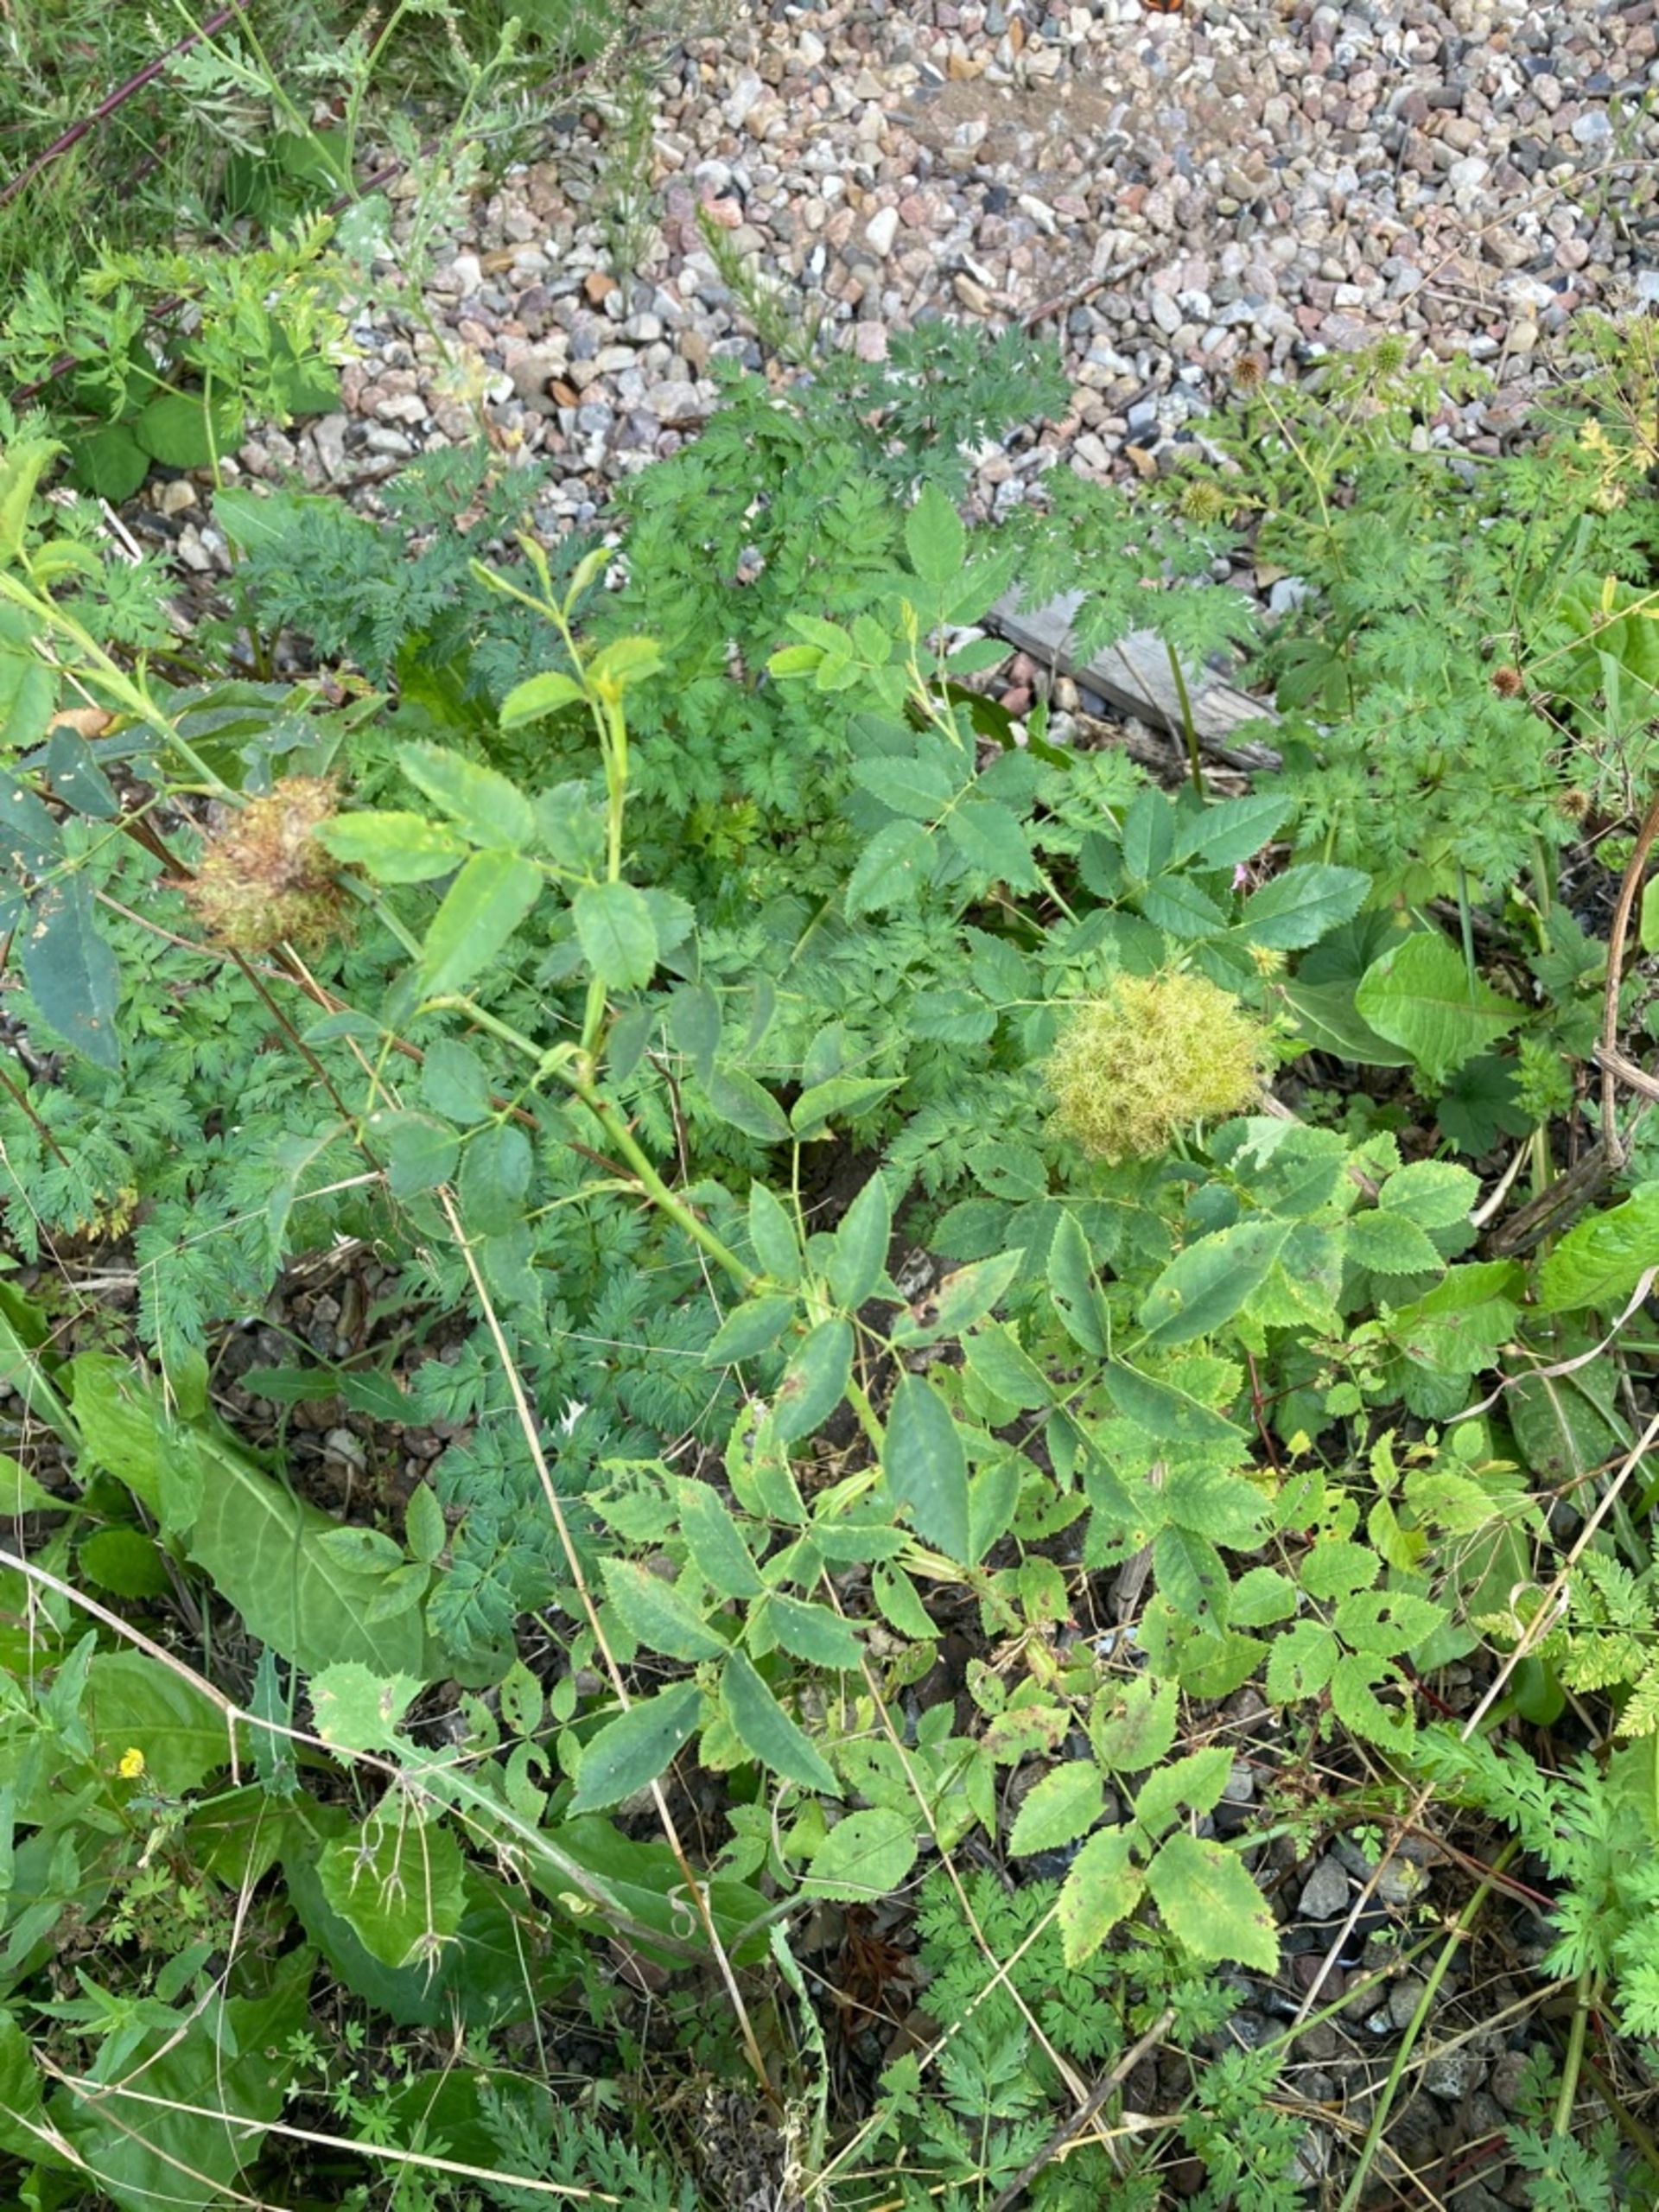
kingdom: Animalia
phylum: Arthropoda
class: Insecta
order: Hymenoptera
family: Cynipidae
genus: Diplolepis
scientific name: Diplolepis rosae
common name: Bedeguargalhveps
